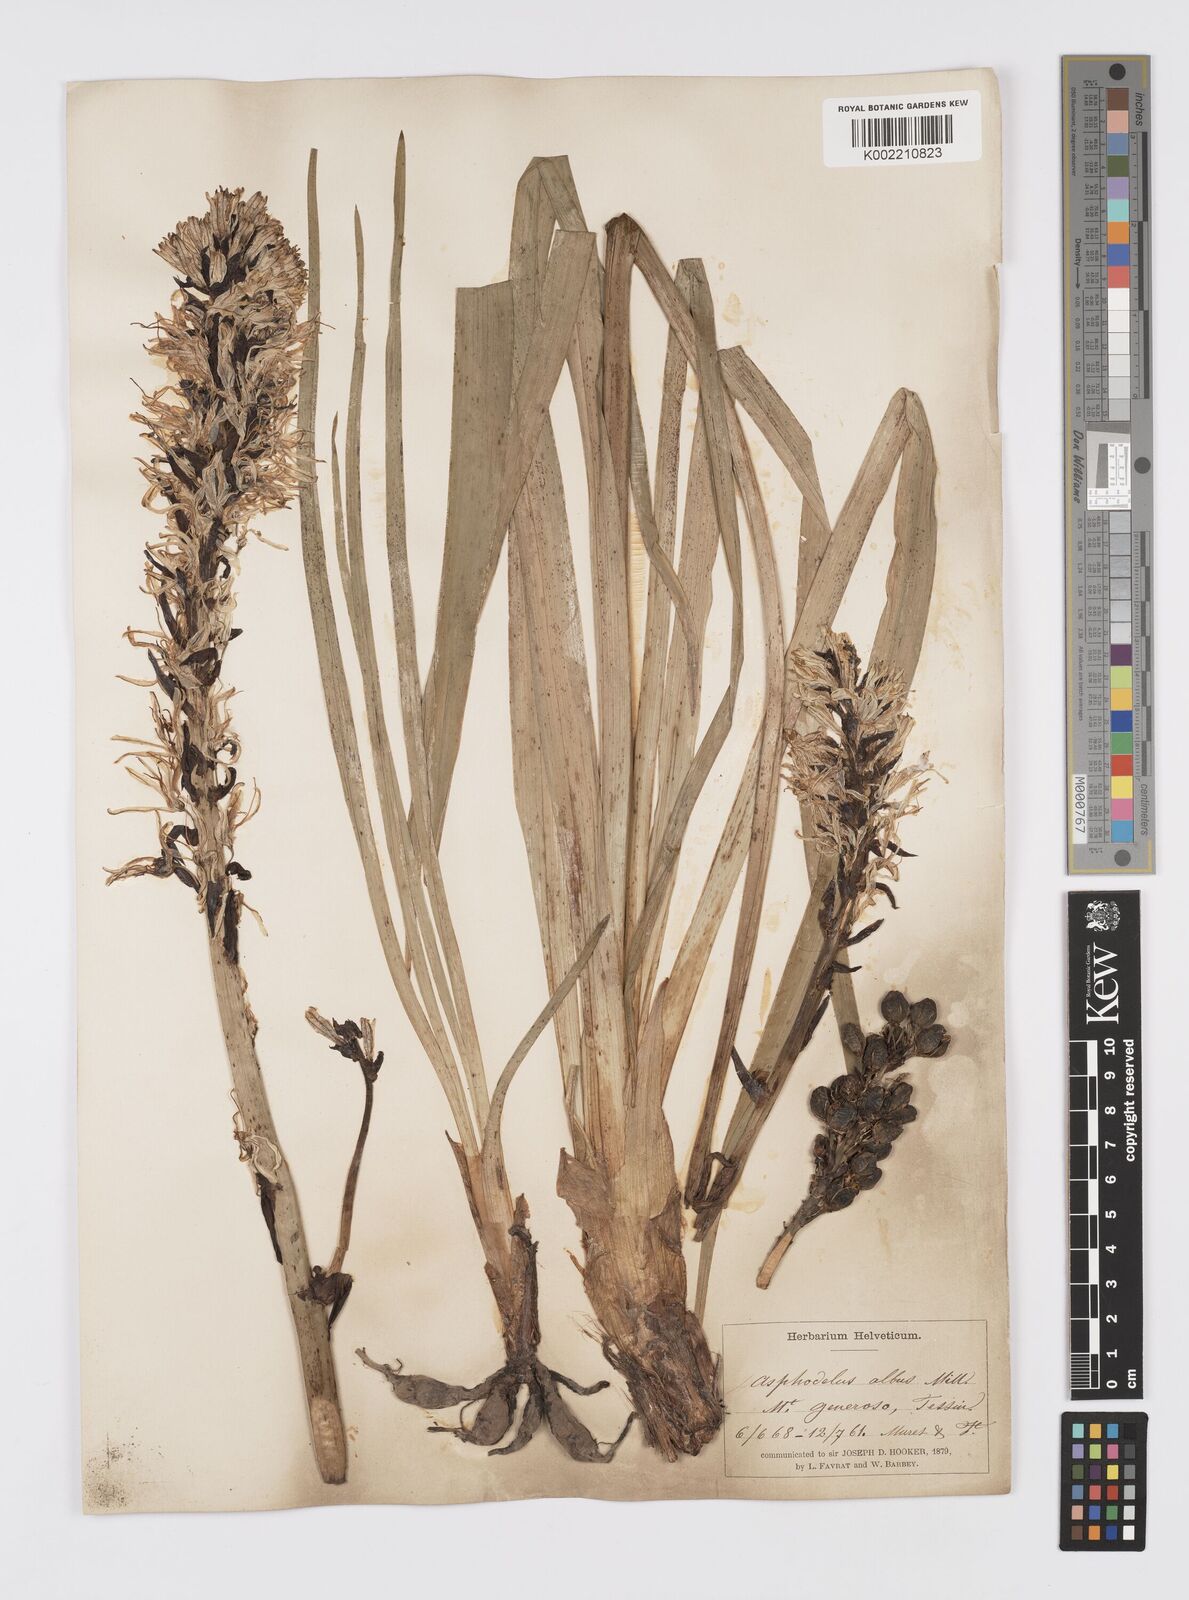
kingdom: Plantae
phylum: Tracheophyta
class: Liliopsida
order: Asparagales
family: Asphodelaceae
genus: Asphodelus
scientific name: Asphodelus albus
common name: White asphodel
